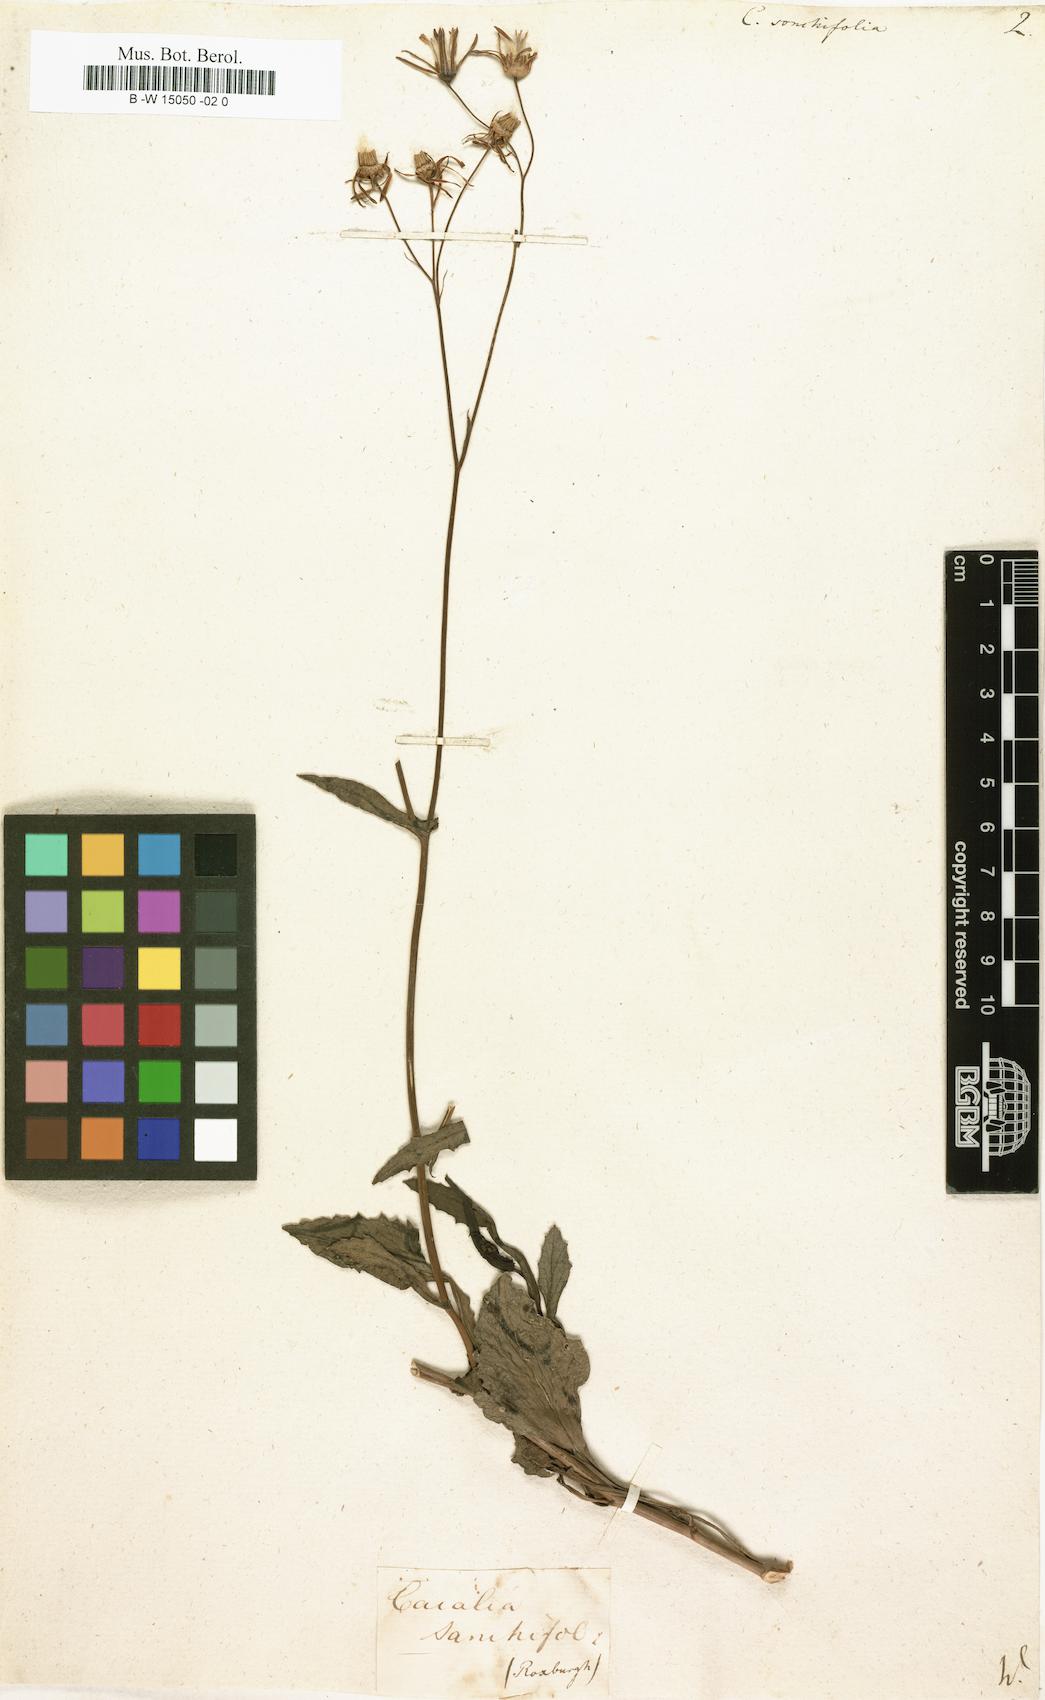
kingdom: Plantae
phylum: Tracheophyta
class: Magnoliopsida
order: Asterales
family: Asteraceae
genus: Adenostyles
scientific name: Adenostyles Cacalia sonchifolia
